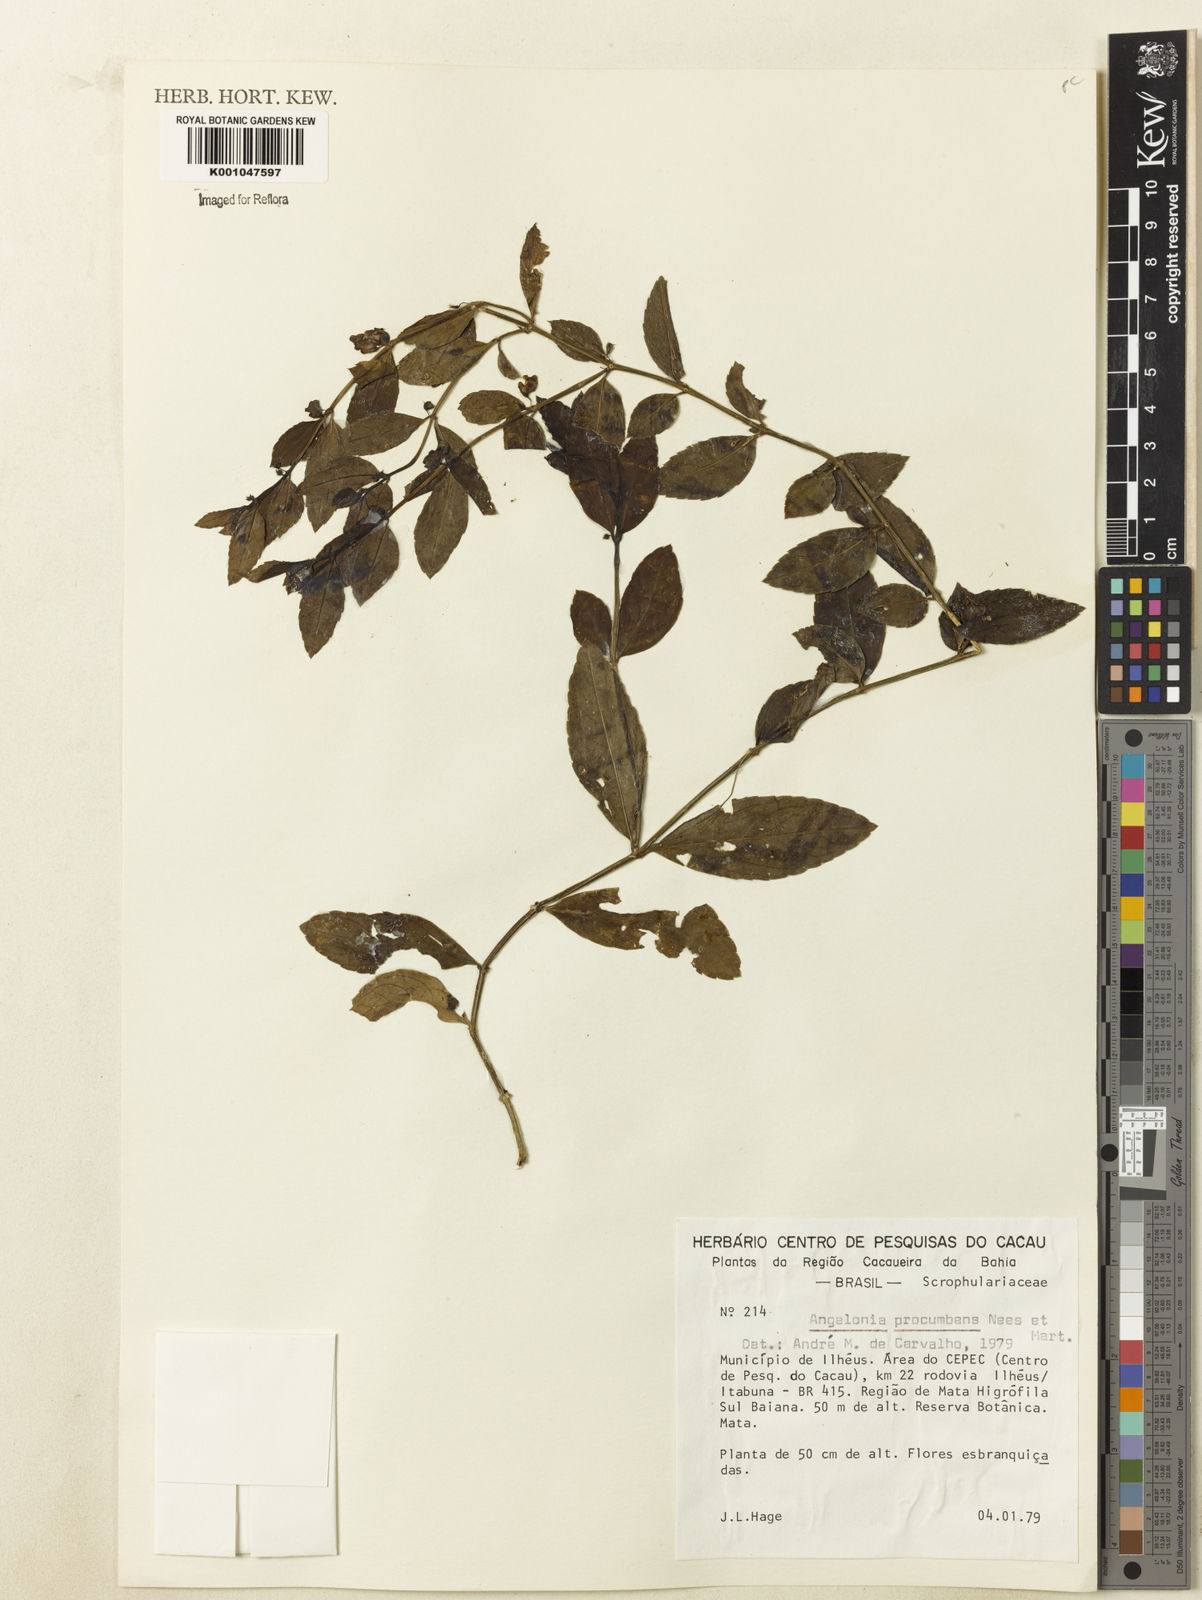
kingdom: Plantae
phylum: Tracheophyta
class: Magnoliopsida
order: Lamiales
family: Plantaginaceae
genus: Angelonia
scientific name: Angelonia procumbens
